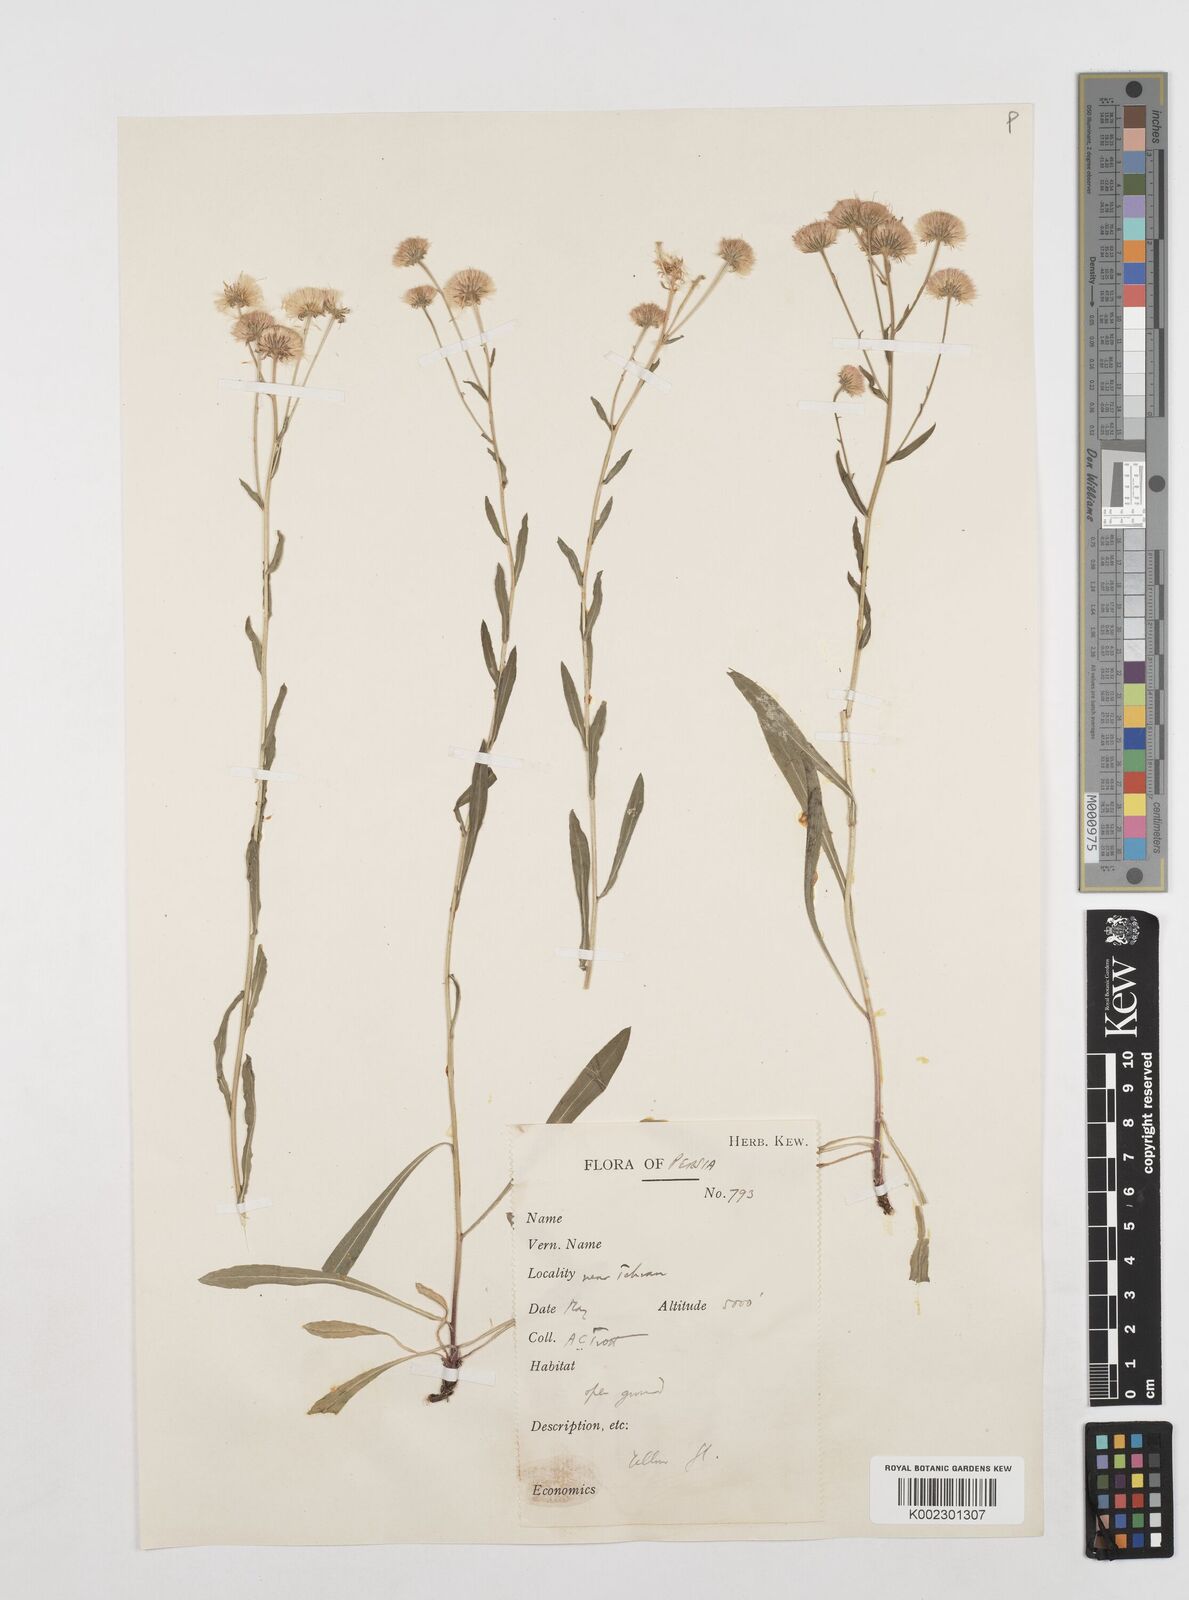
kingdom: Plantae
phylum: Tracheophyta
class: Magnoliopsida
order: Asterales
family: Asteraceae
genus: Erigeron
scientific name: Erigeron acris
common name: Blue fleabane
